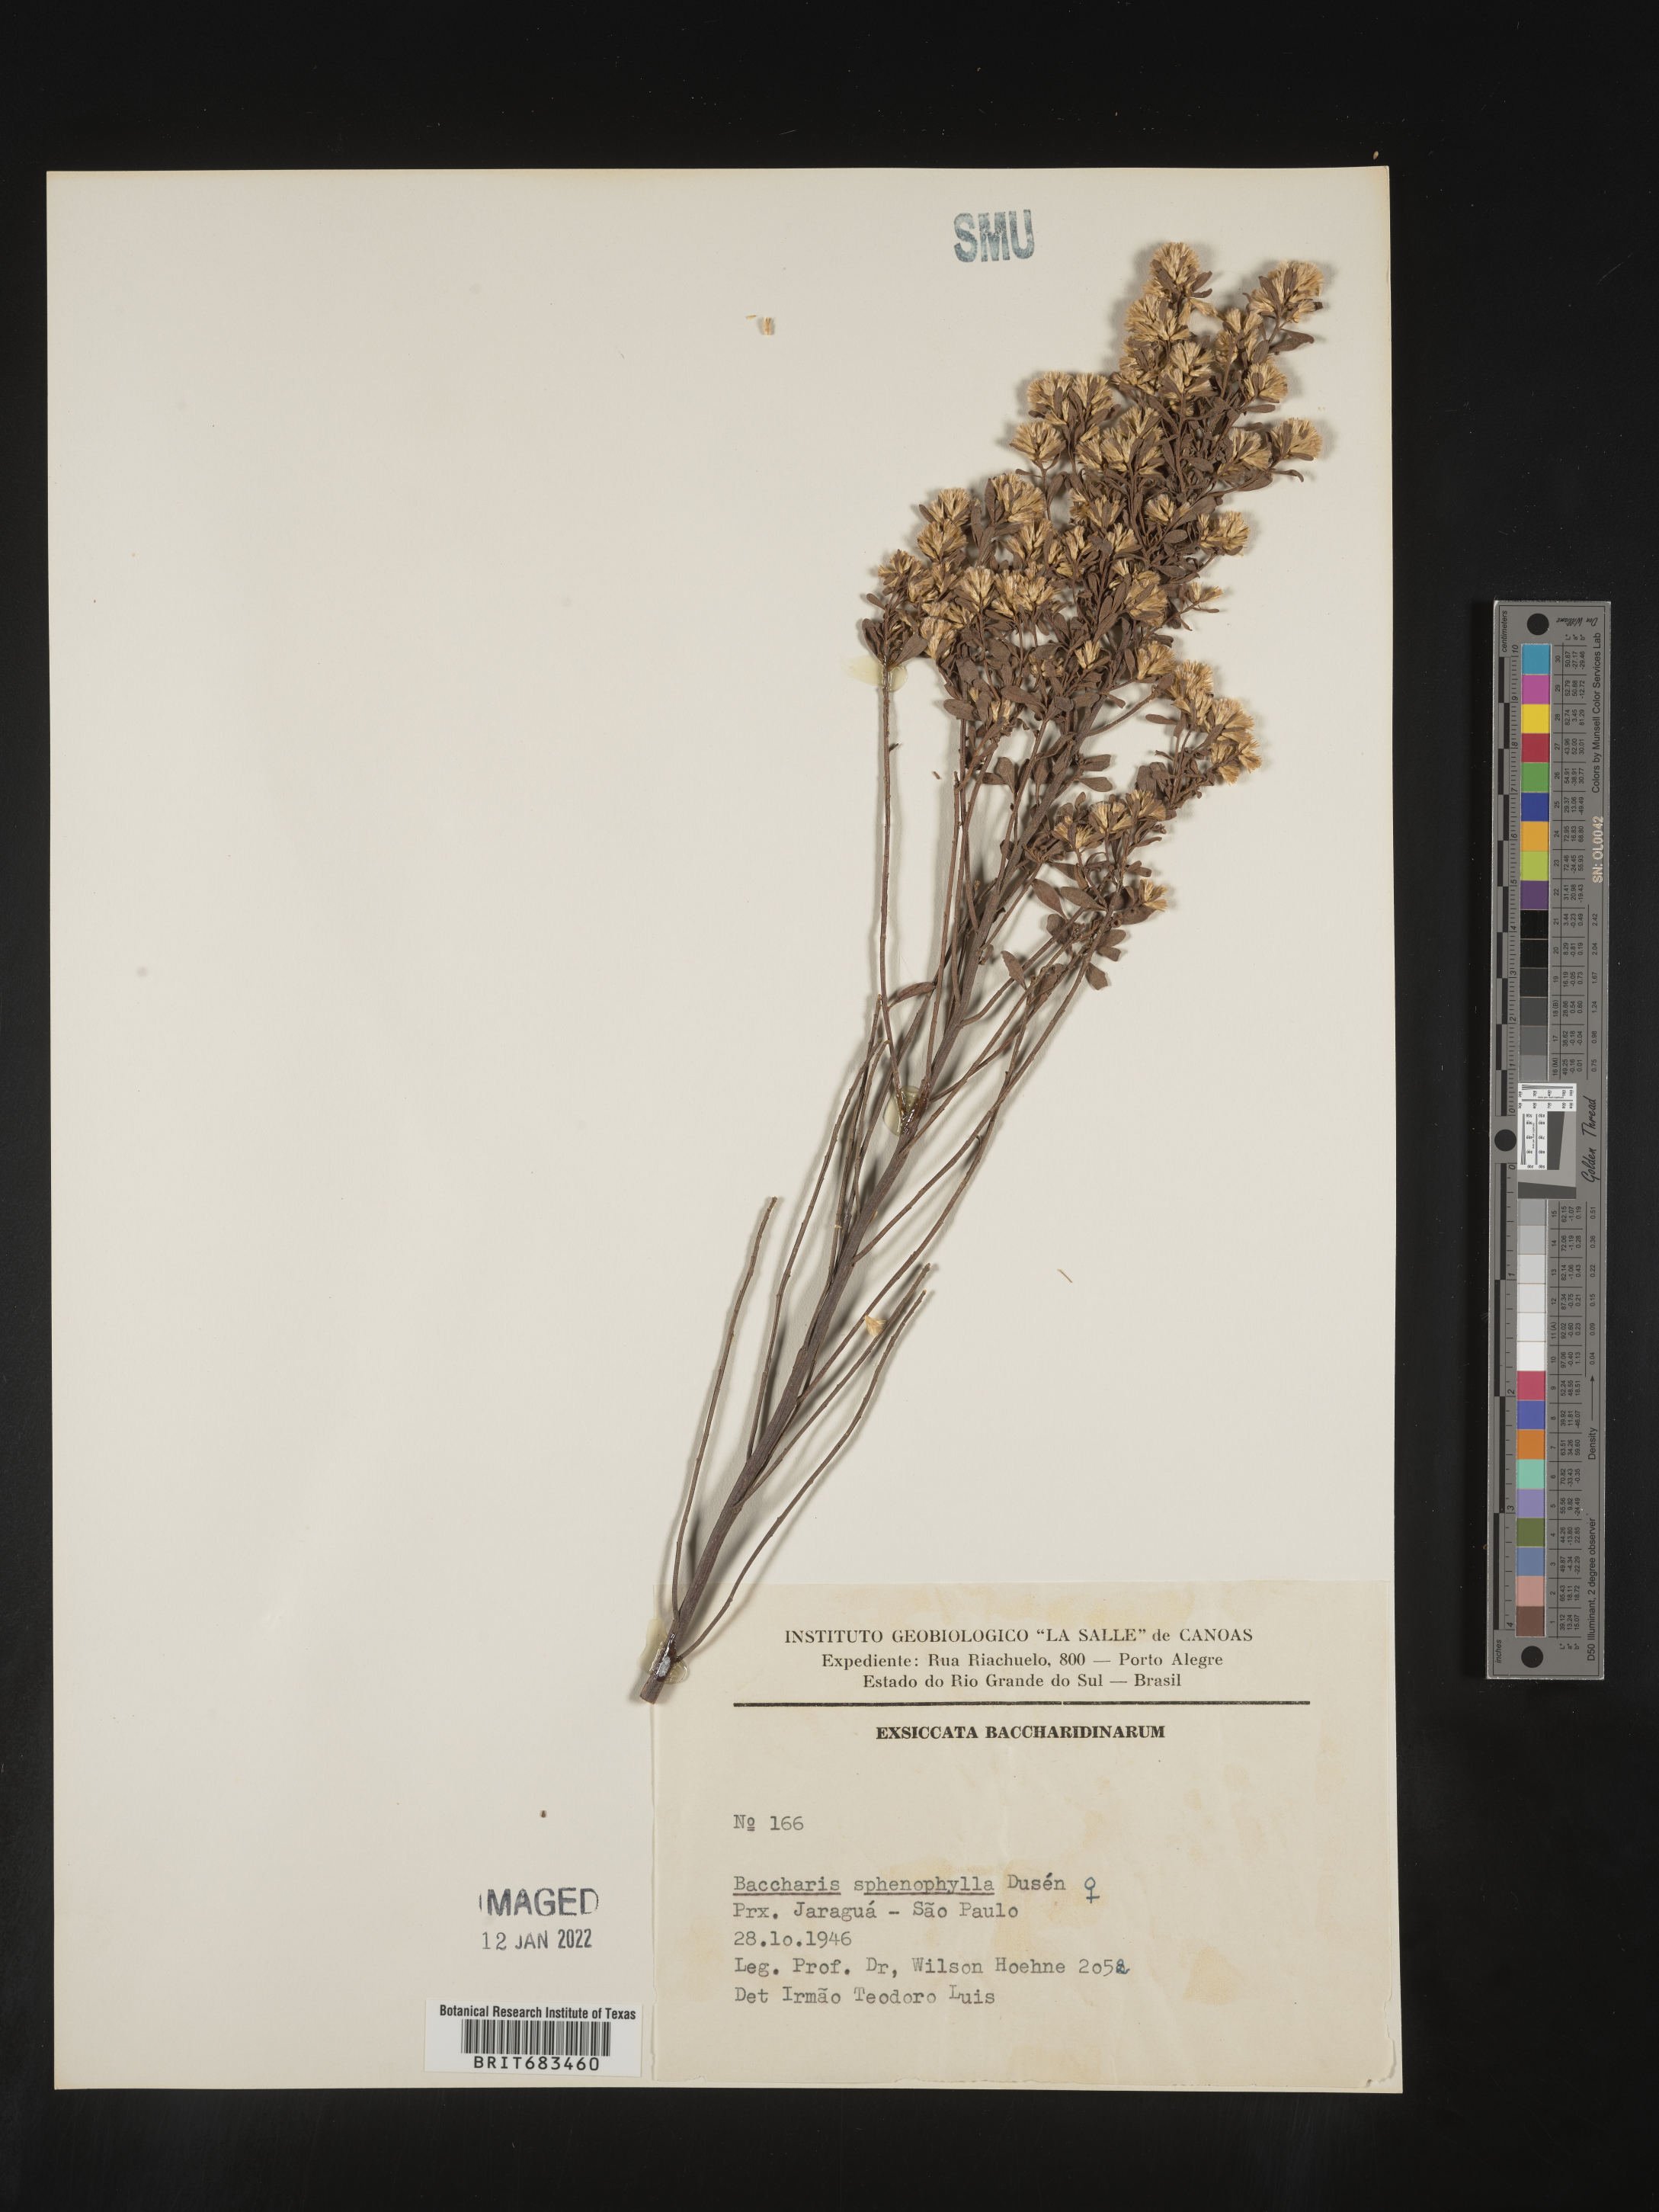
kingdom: Plantae
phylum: Tracheophyta
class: Magnoliopsida
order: Asterales
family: Asteraceae
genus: Baccharis
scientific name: Baccharis
